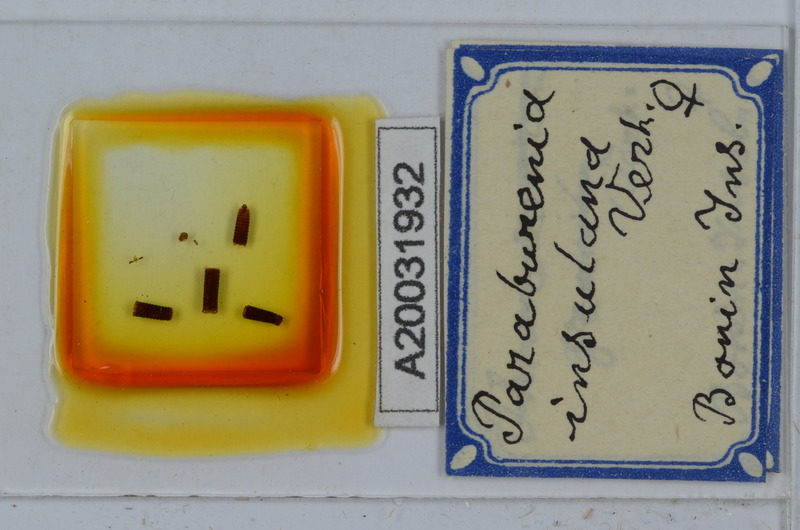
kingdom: Animalia
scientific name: Animalia
